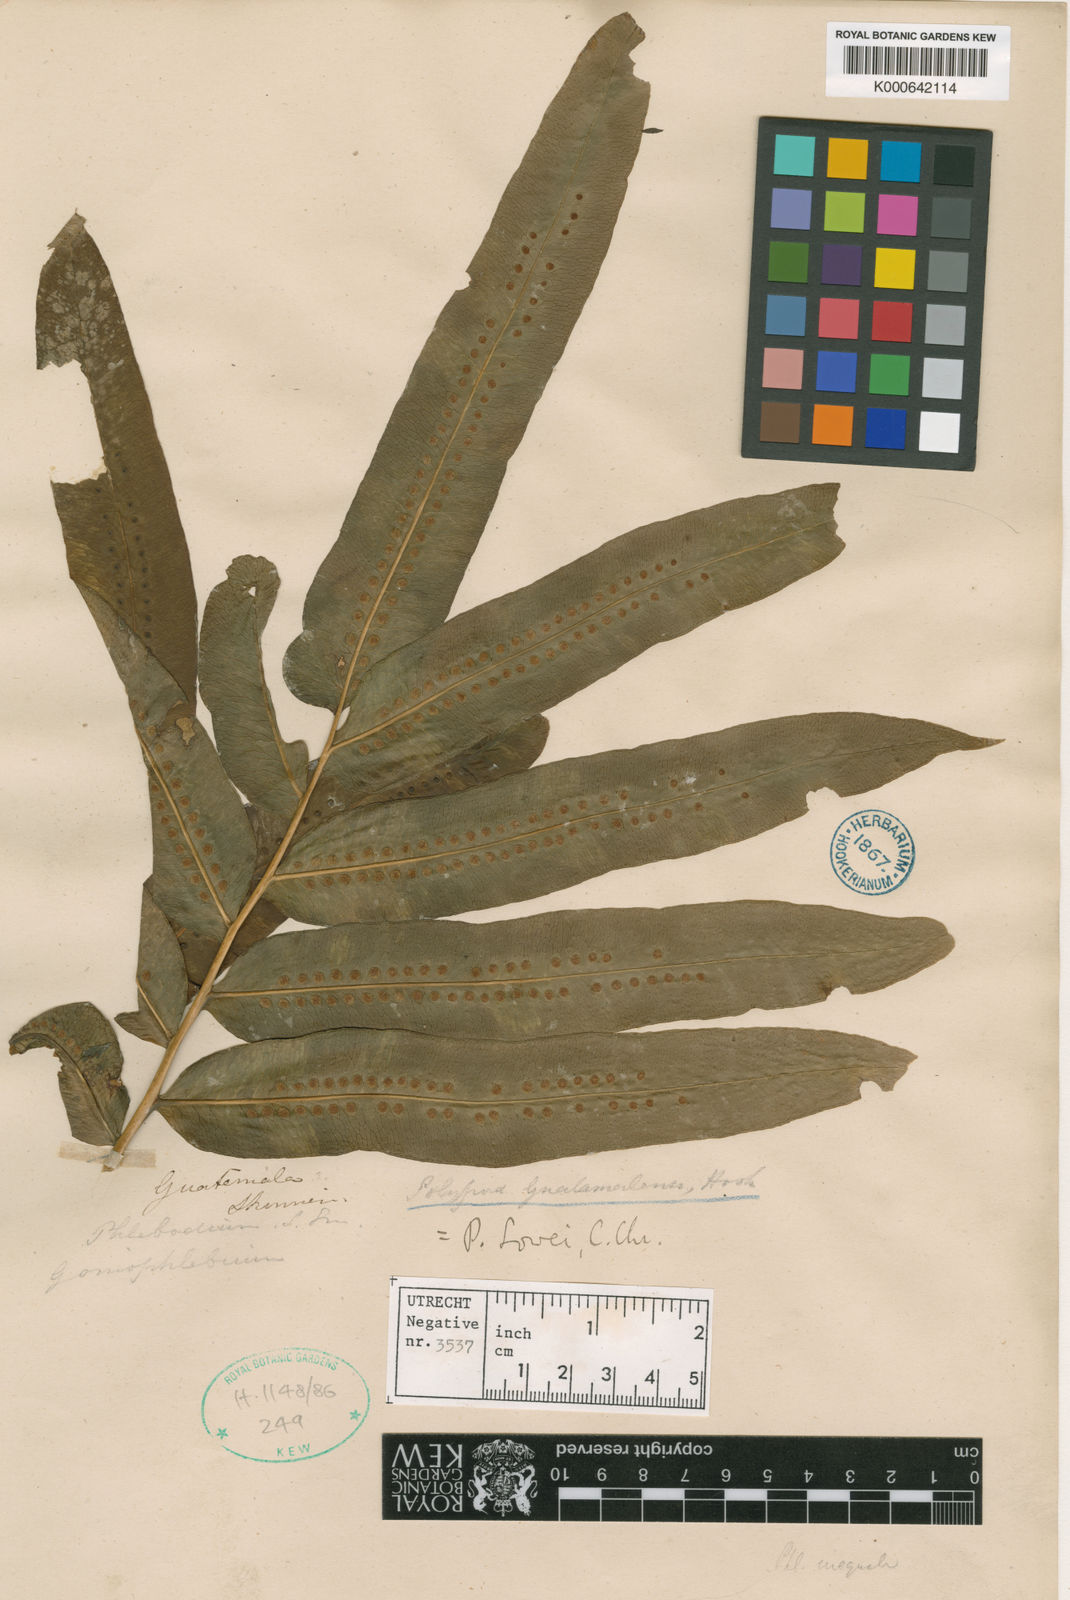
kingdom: Plantae
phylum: Tracheophyta
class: Polypodiopsida
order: Polypodiales
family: Polypodiaceae
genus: Polypodium
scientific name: Polypodium
